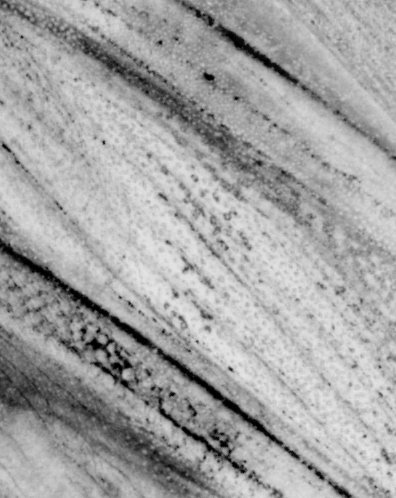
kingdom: Animalia
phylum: Chordata
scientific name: Chordata
